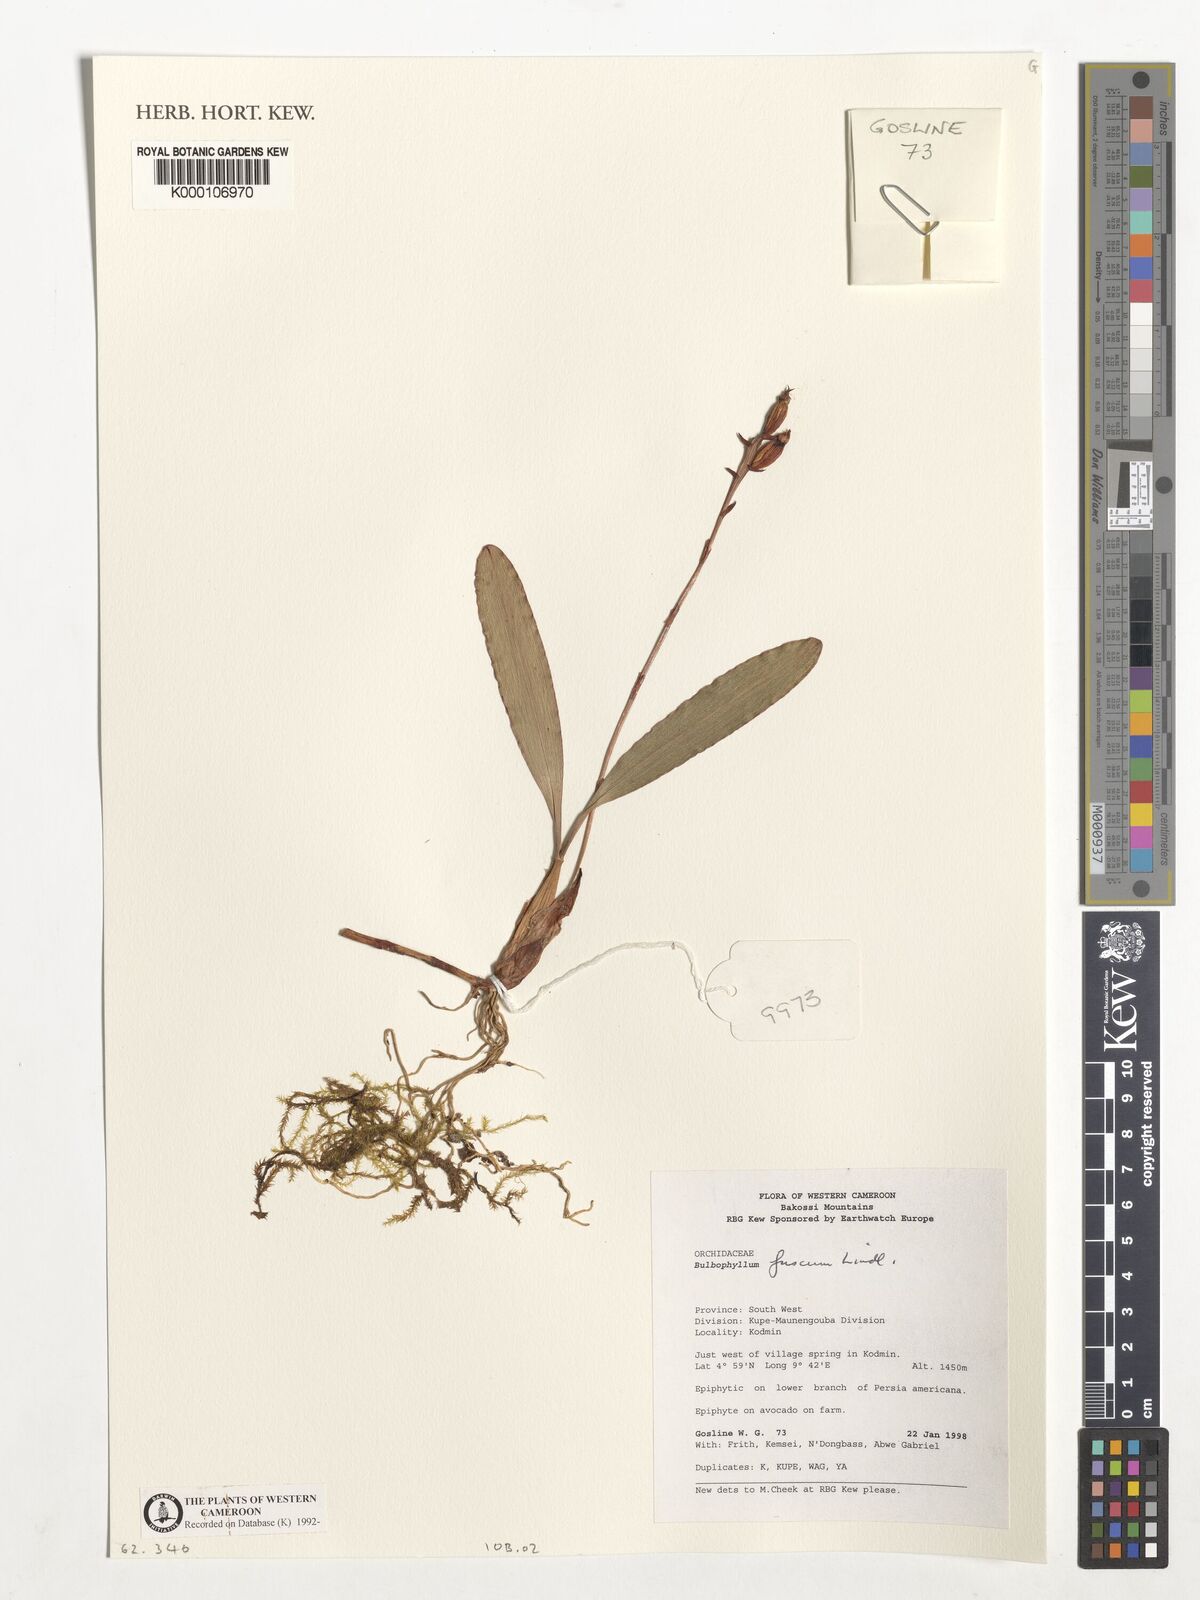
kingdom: Plantae
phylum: Tracheophyta
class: Liliopsida
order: Asparagales
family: Orchidaceae
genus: Bulbophyllum
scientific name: Bulbophyllum fuscum
